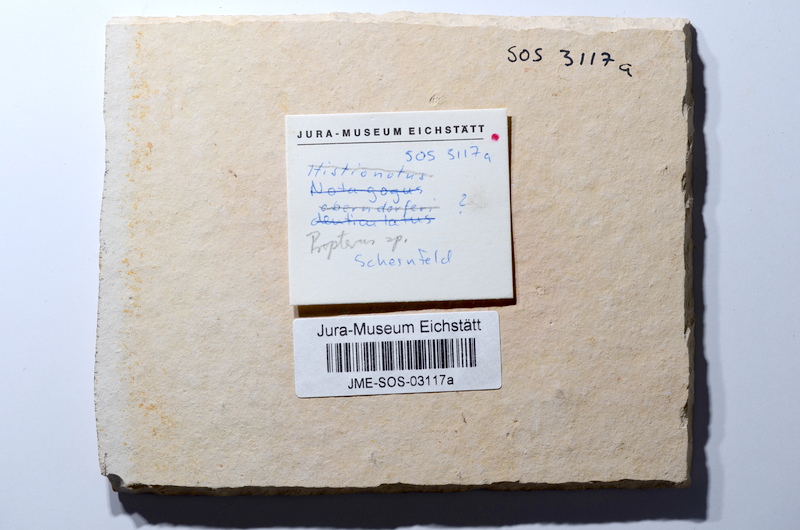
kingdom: Animalia
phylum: Chordata
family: Macrosemiidae
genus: Propterus
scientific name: Propterus
